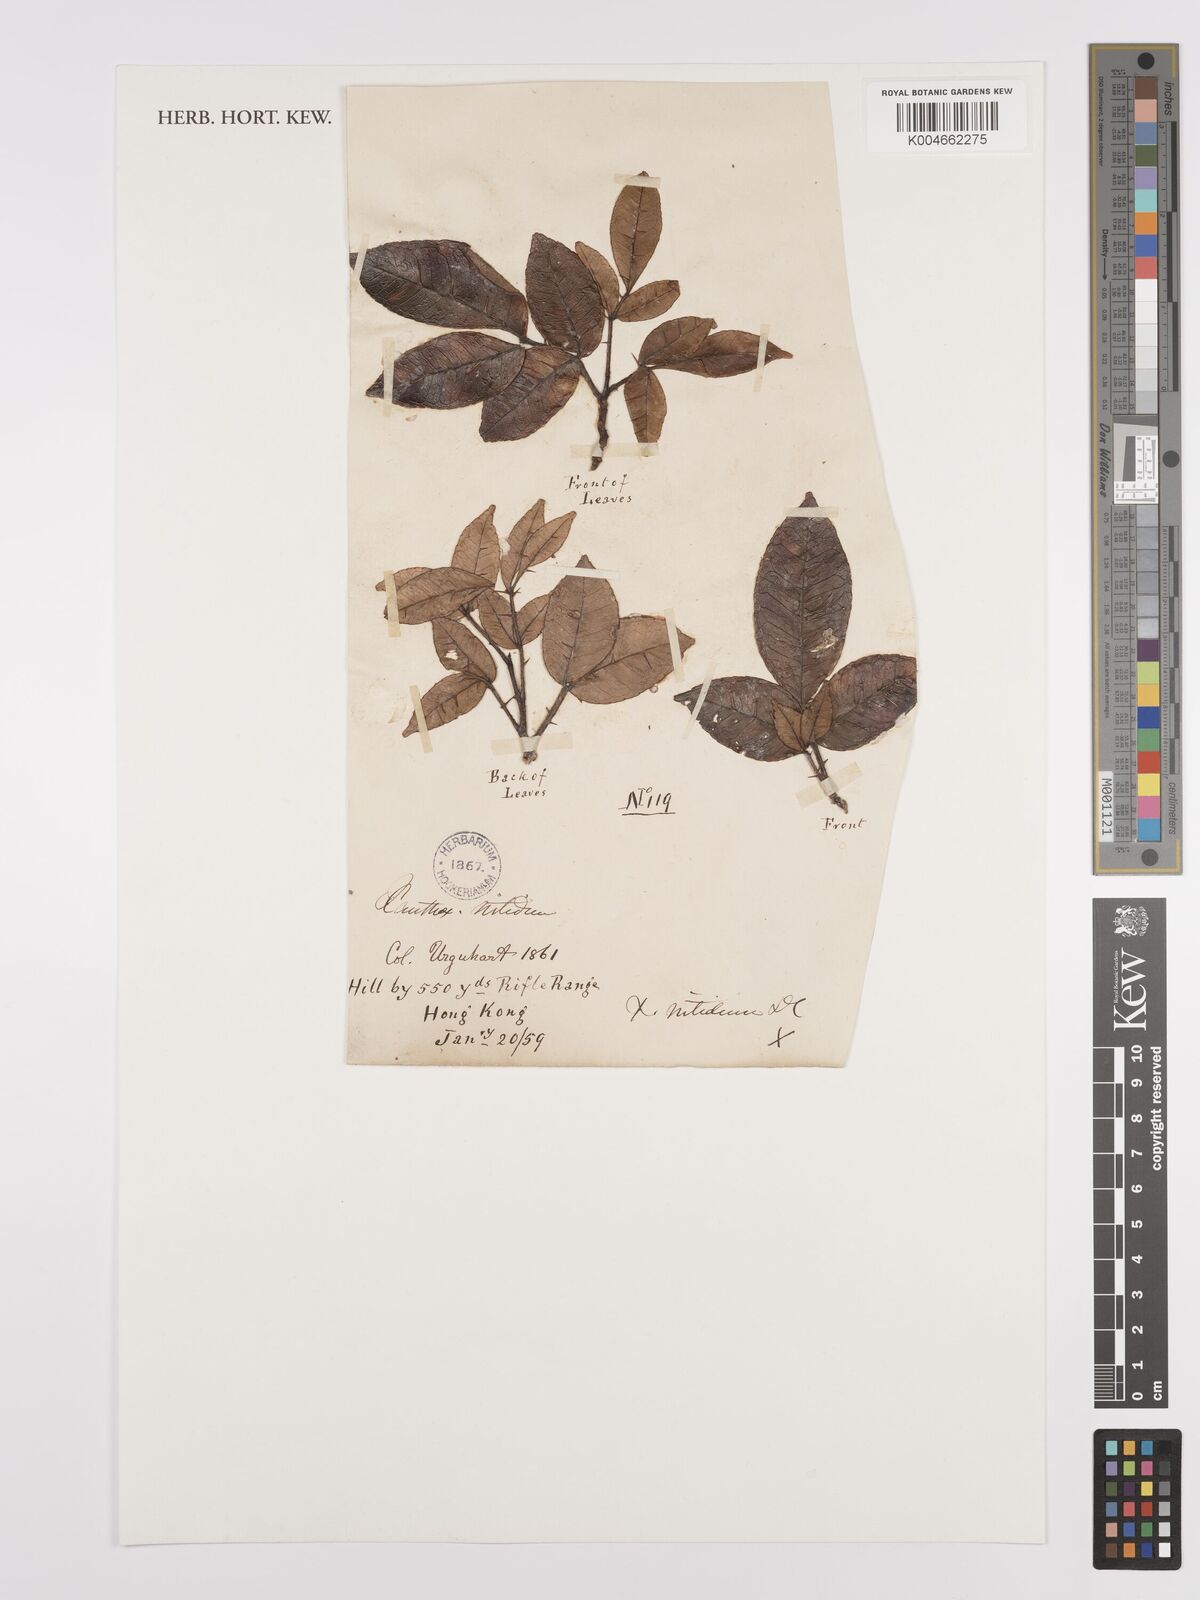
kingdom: Plantae
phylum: Tracheophyta
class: Magnoliopsida
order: Sapindales
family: Rutaceae
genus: Zanthoxylum
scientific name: Zanthoxylum
